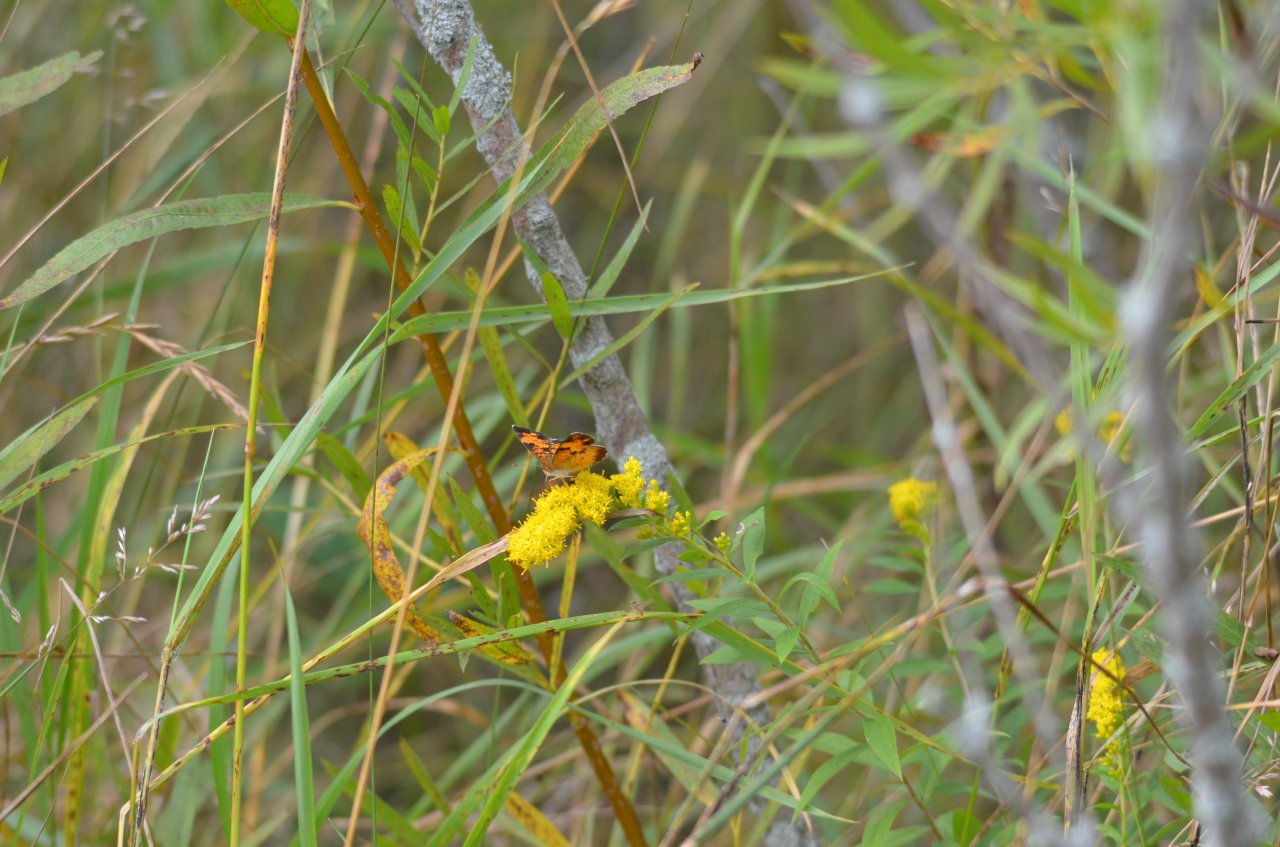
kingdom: Animalia
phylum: Arthropoda
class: Insecta
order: Lepidoptera
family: Nymphalidae
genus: Phyciodes
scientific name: Phyciodes tharos
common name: Northern Crescent
